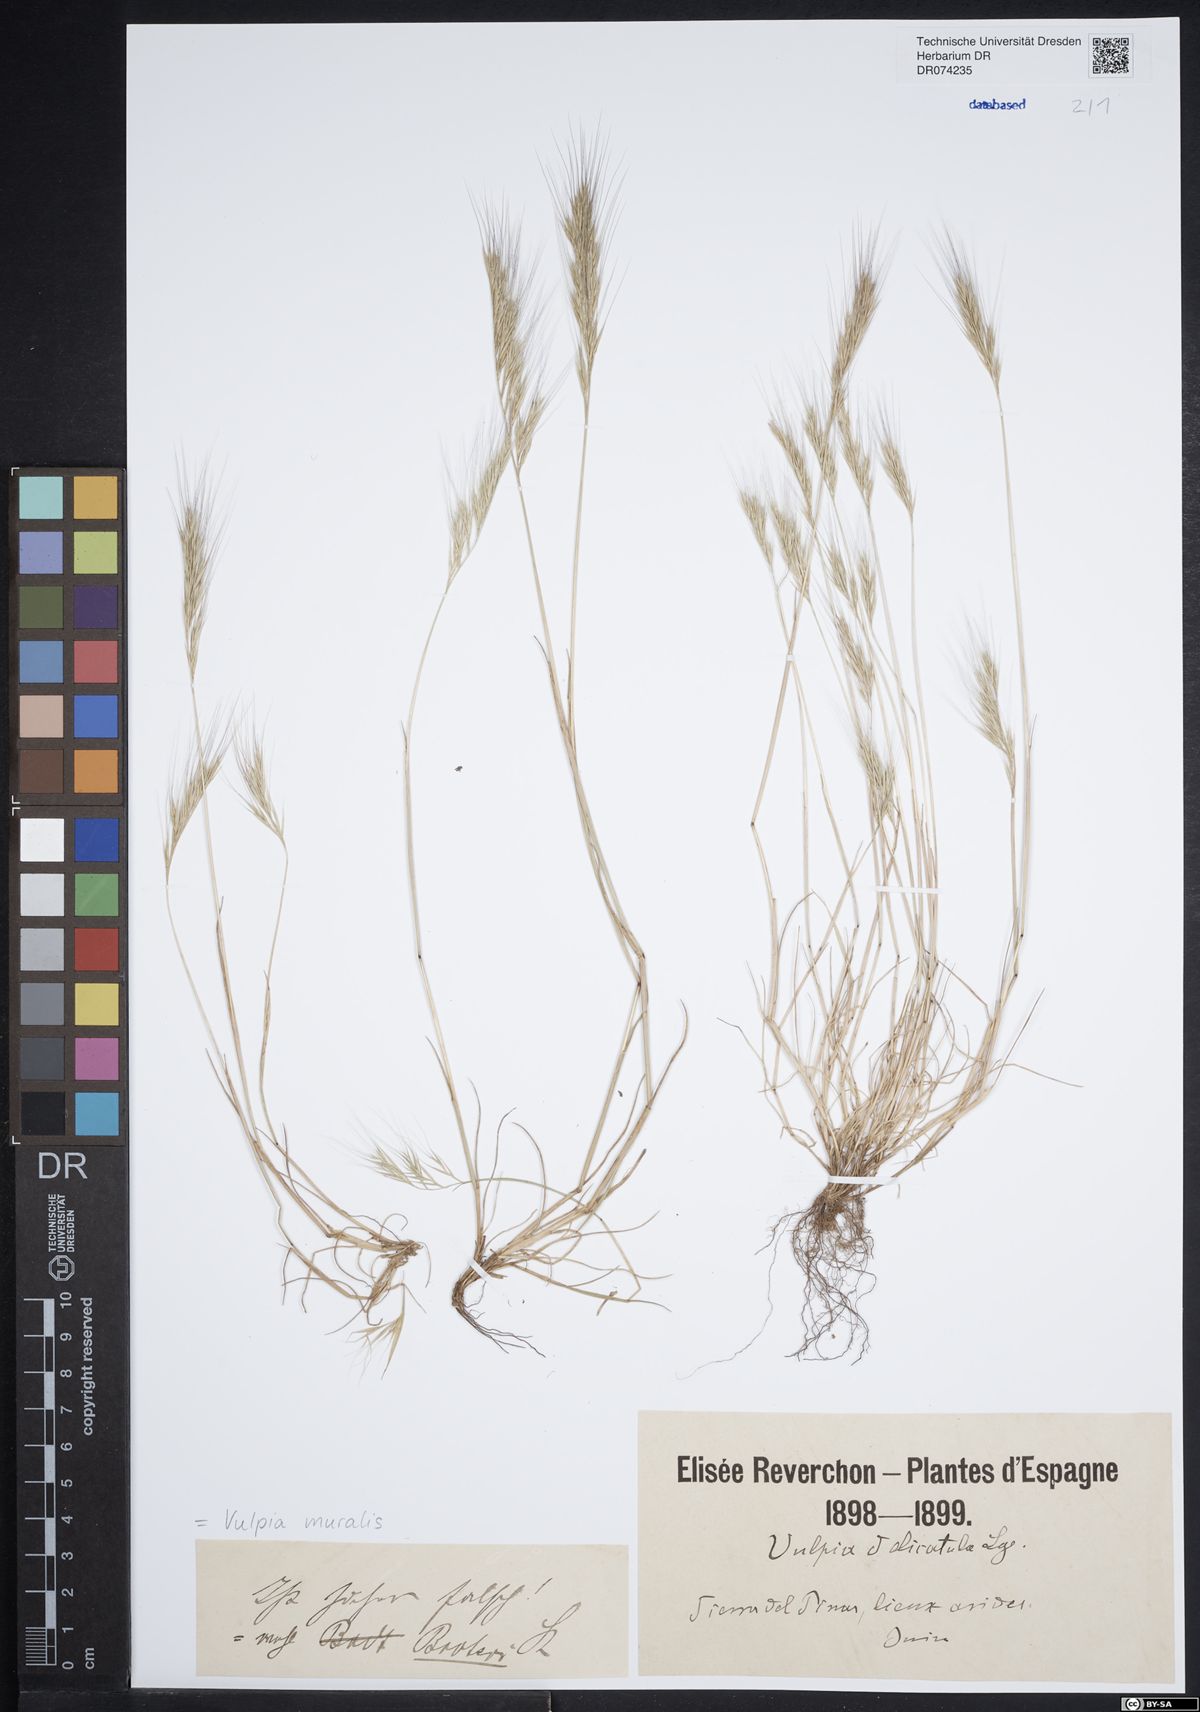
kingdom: Plantae
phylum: Tracheophyta
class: Liliopsida
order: Poales
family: Poaceae
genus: Festuca
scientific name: Festuca muralis
